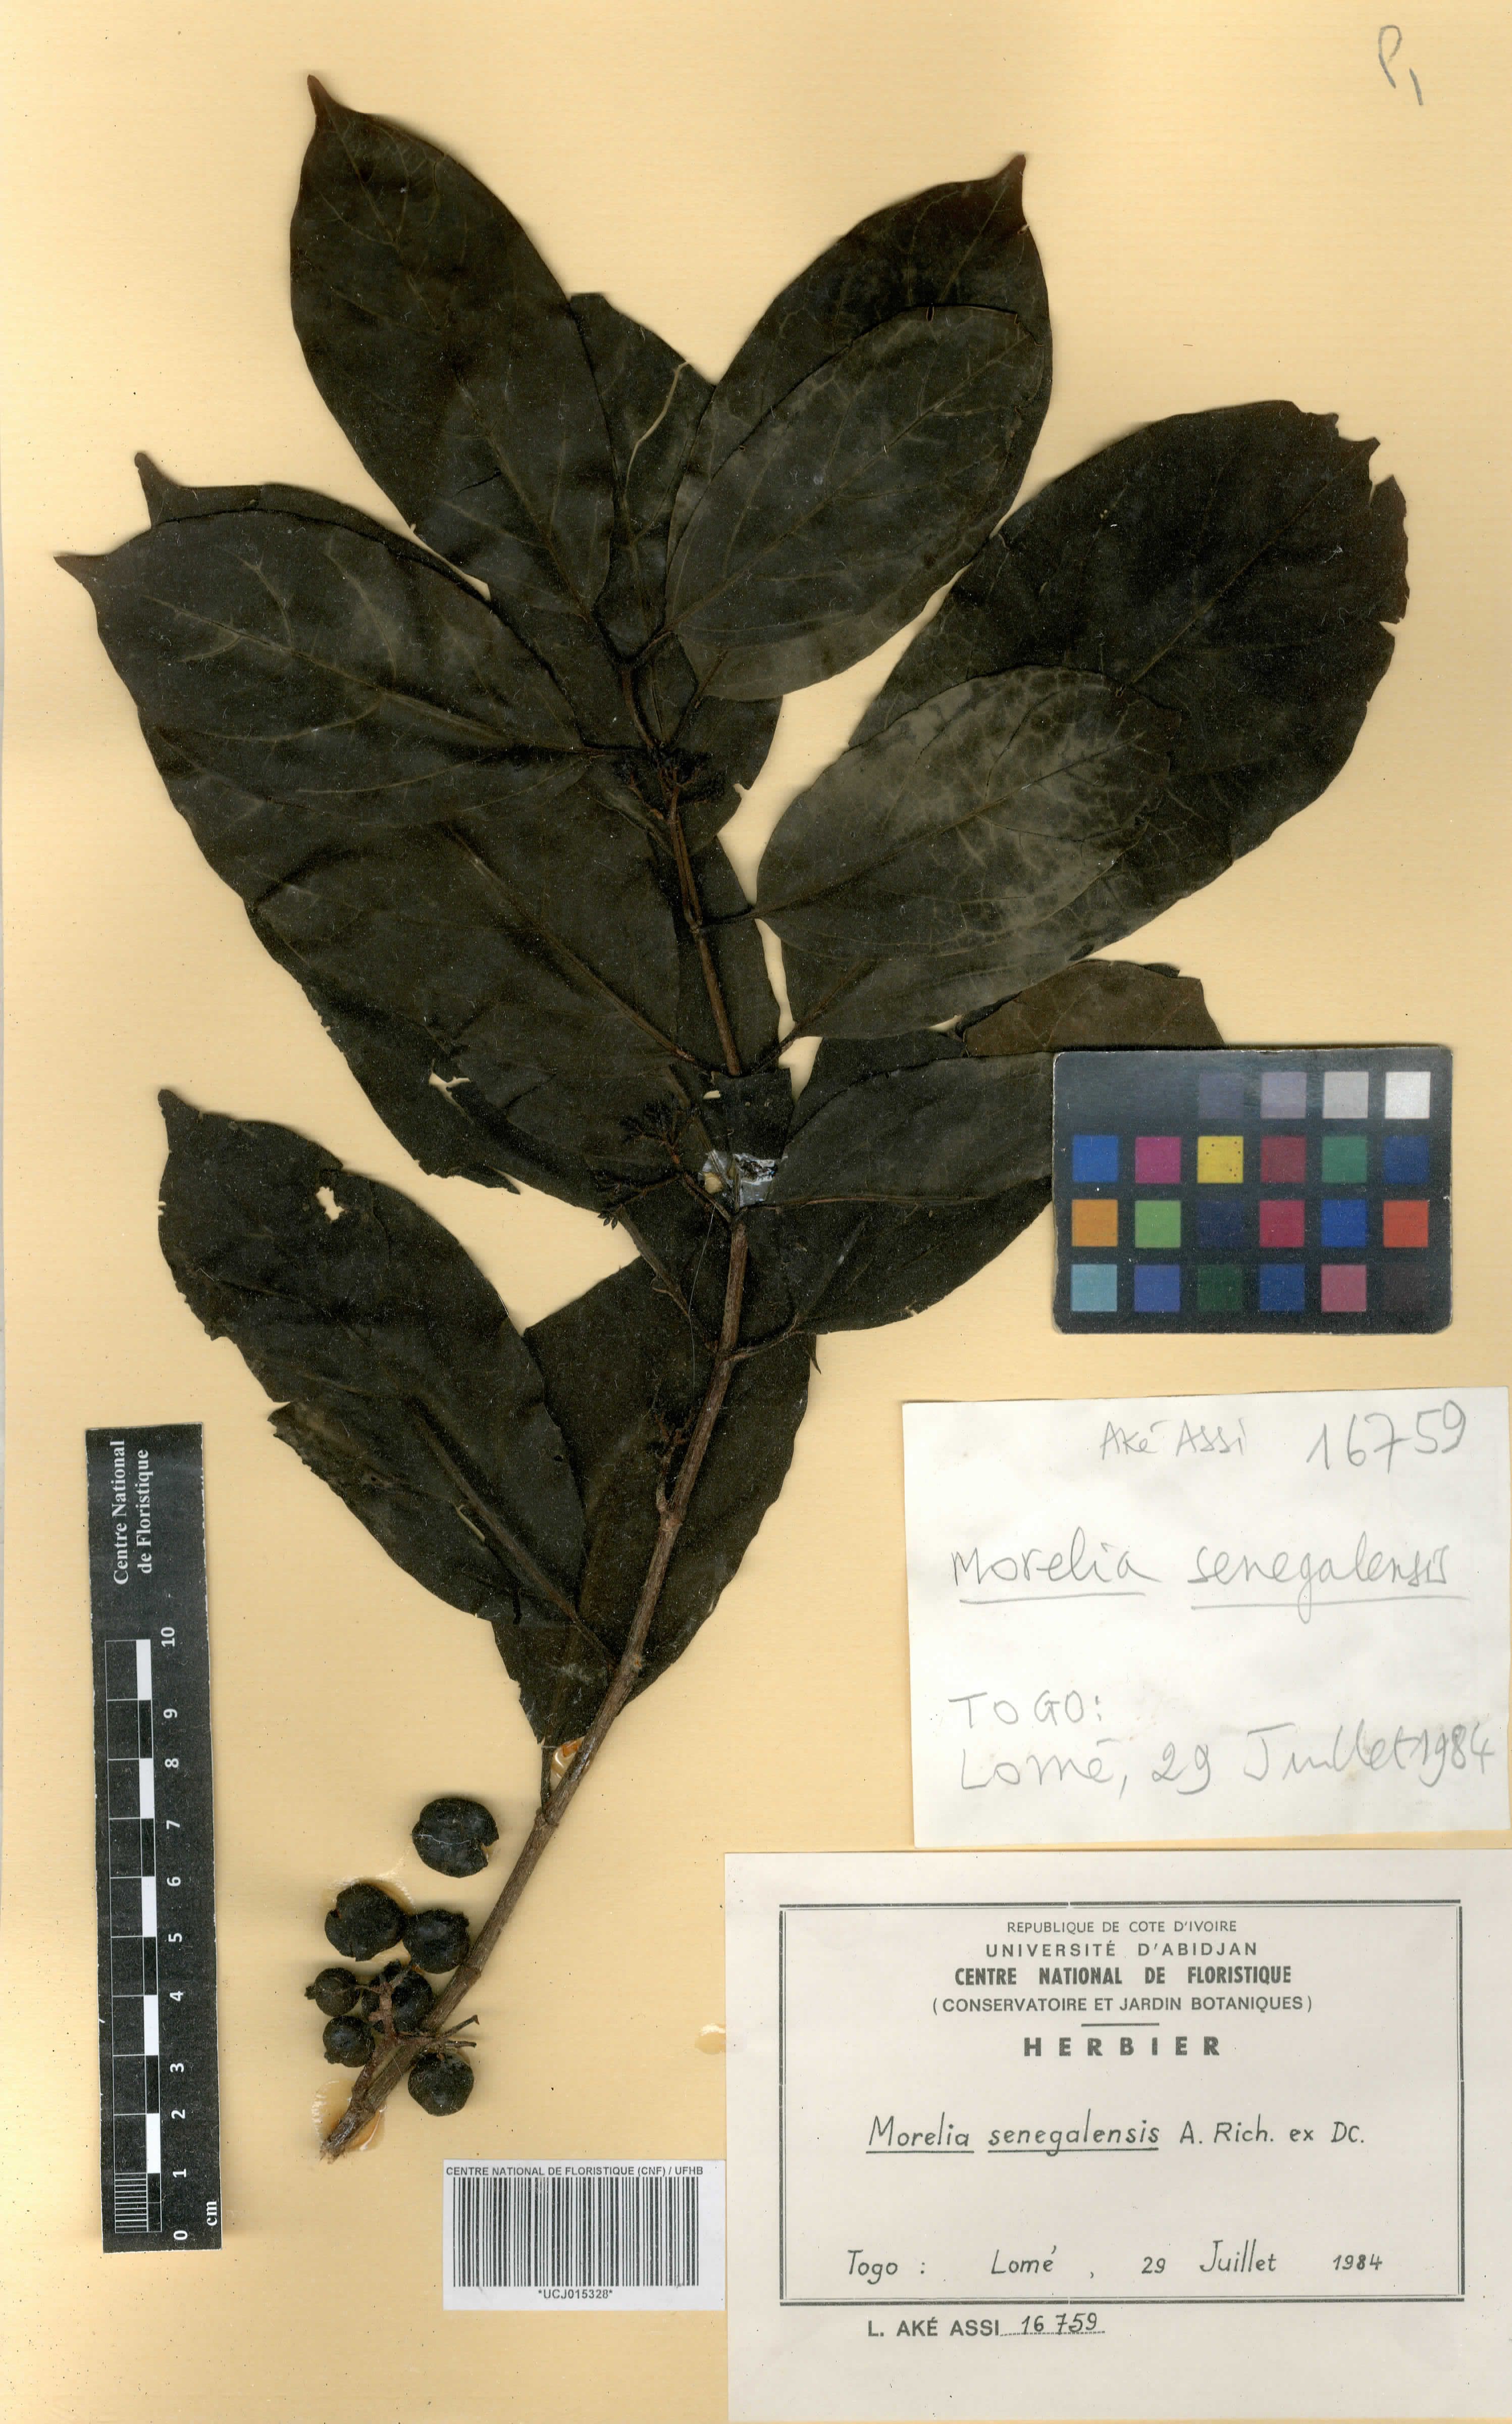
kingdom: Plantae
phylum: Tracheophyta
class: Magnoliopsida
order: Gentianales
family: Rubiaceae
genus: Morelia
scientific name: Morelia senegalensis
